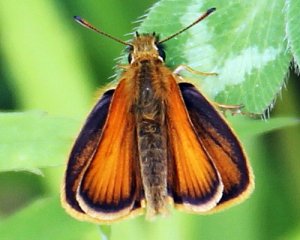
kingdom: Animalia
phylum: Arthropoda
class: Insecta
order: Lepidoptera
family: Hesperiidae
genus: Thymelicus
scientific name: Thymelicus lineola
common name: European Skipper
